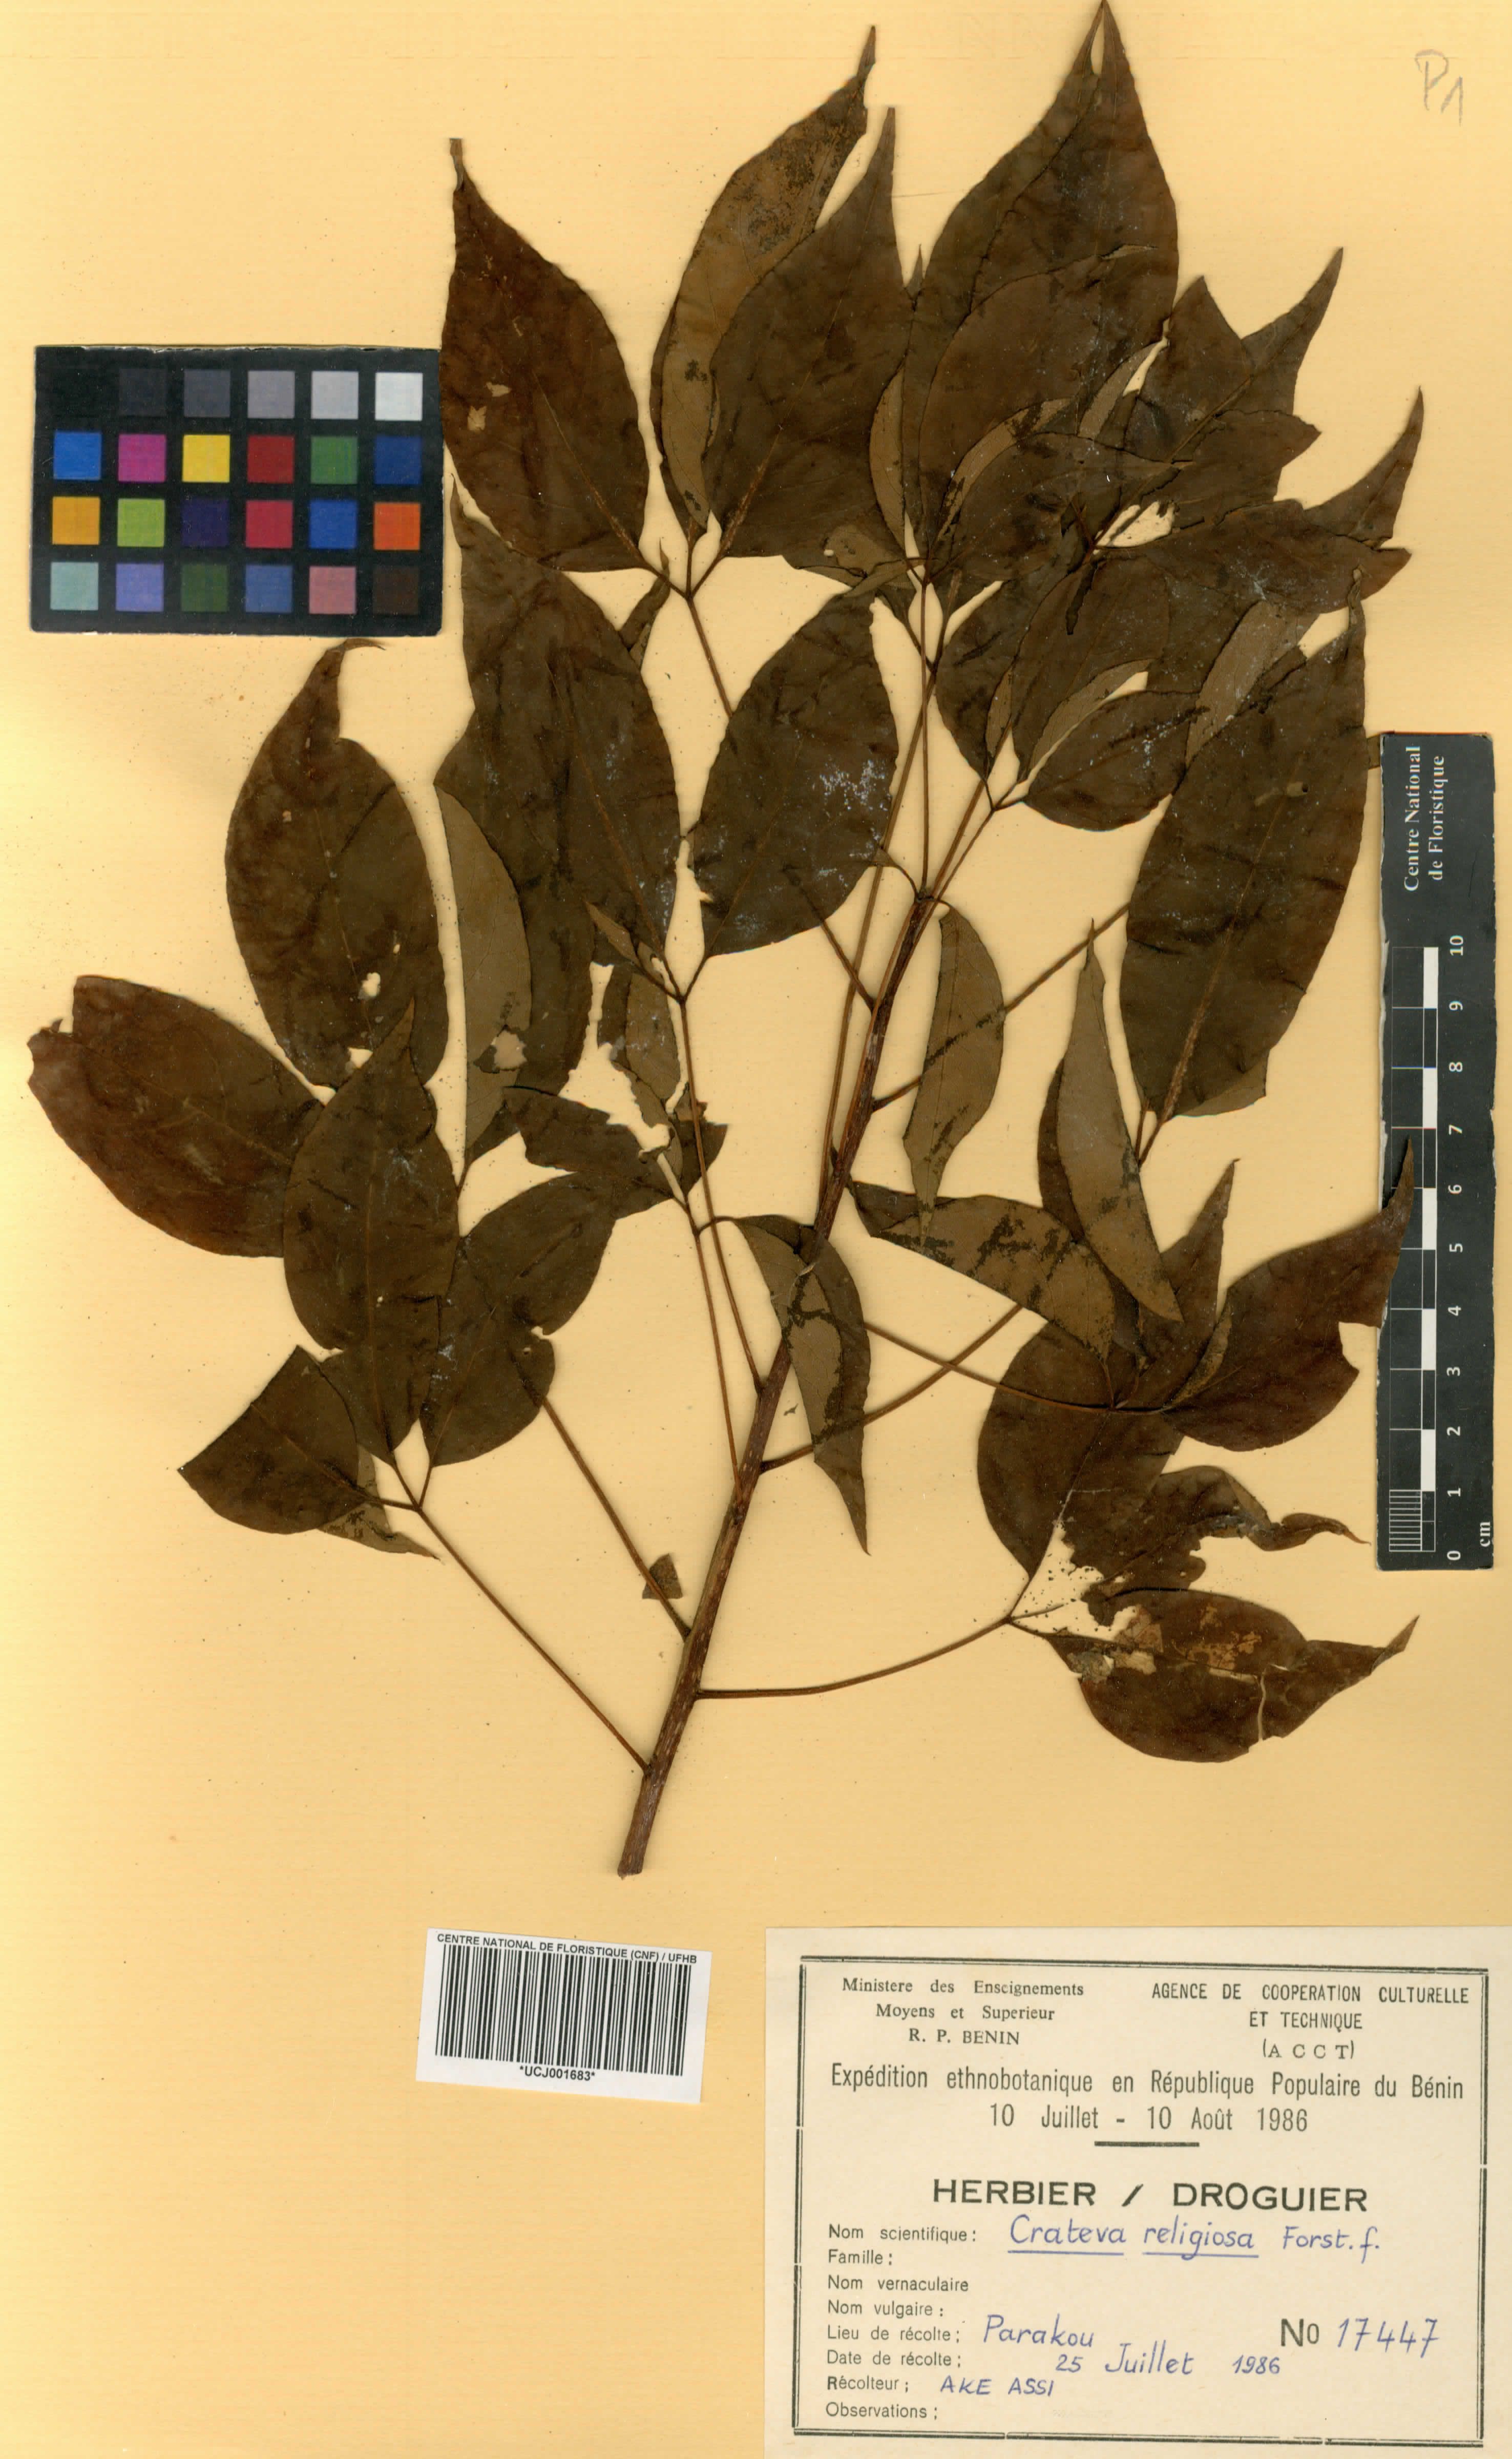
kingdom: Plantae
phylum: Tracheophyta
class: Magnoliopsida
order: Brassicales
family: Capparaceae
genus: Crateva
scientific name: Crateva religiosa
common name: March dalur
